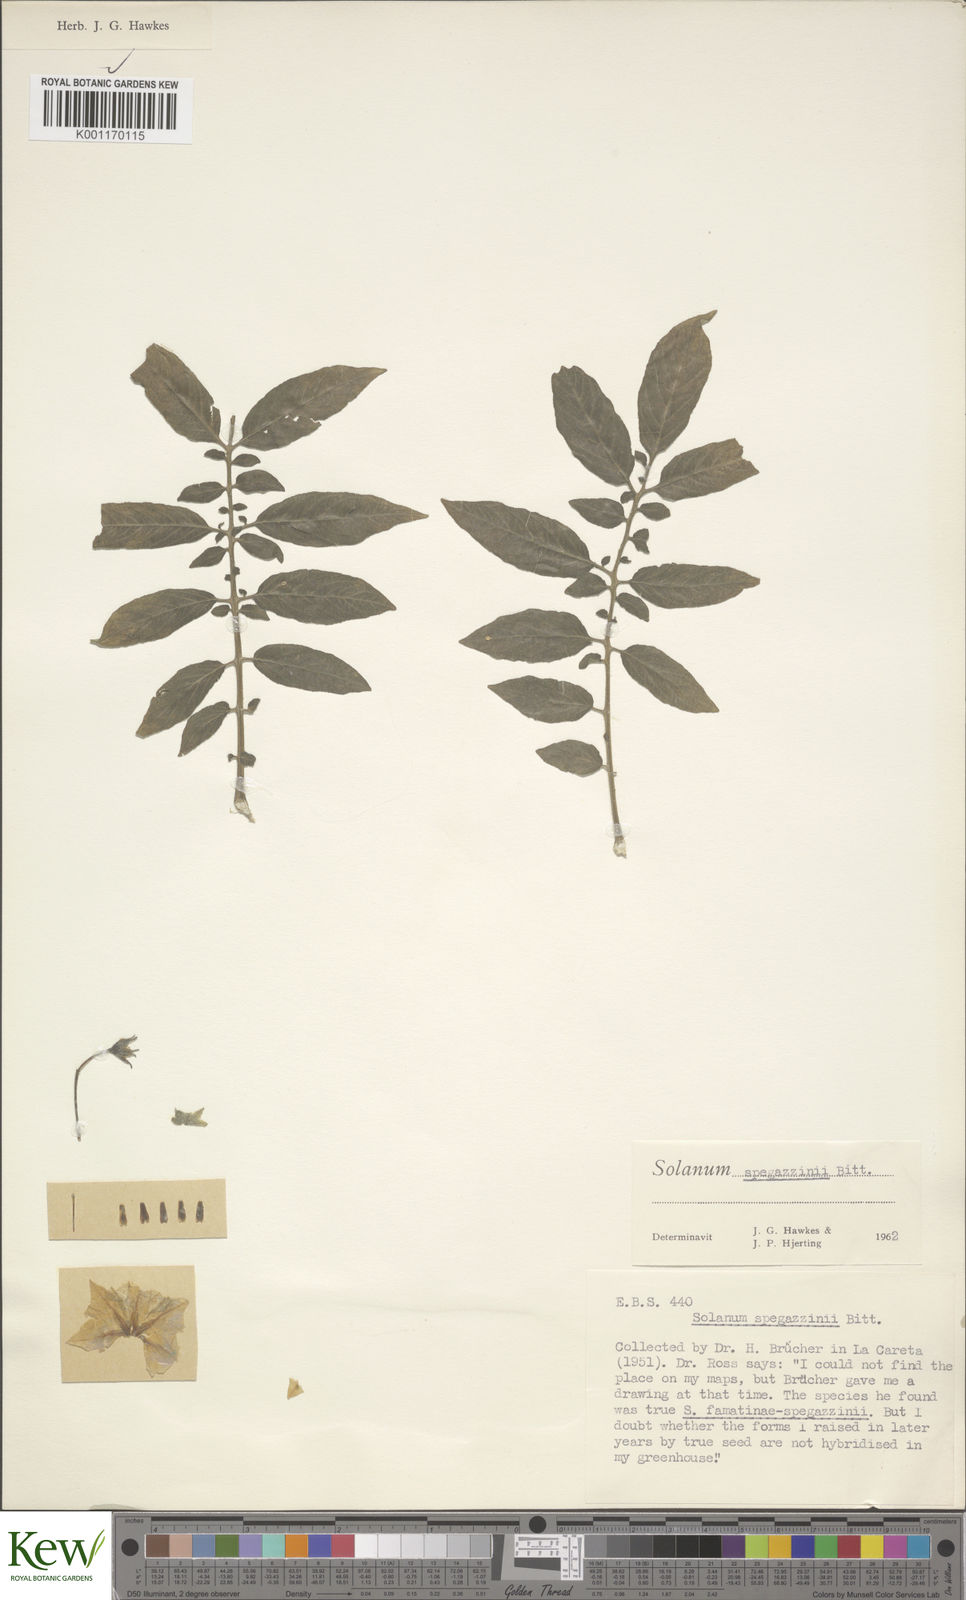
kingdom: Plantae
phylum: Tracheophyta
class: Magnoliopsida
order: Solanales
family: Solanaceae
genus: Solanum
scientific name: Solanum brevicaule
